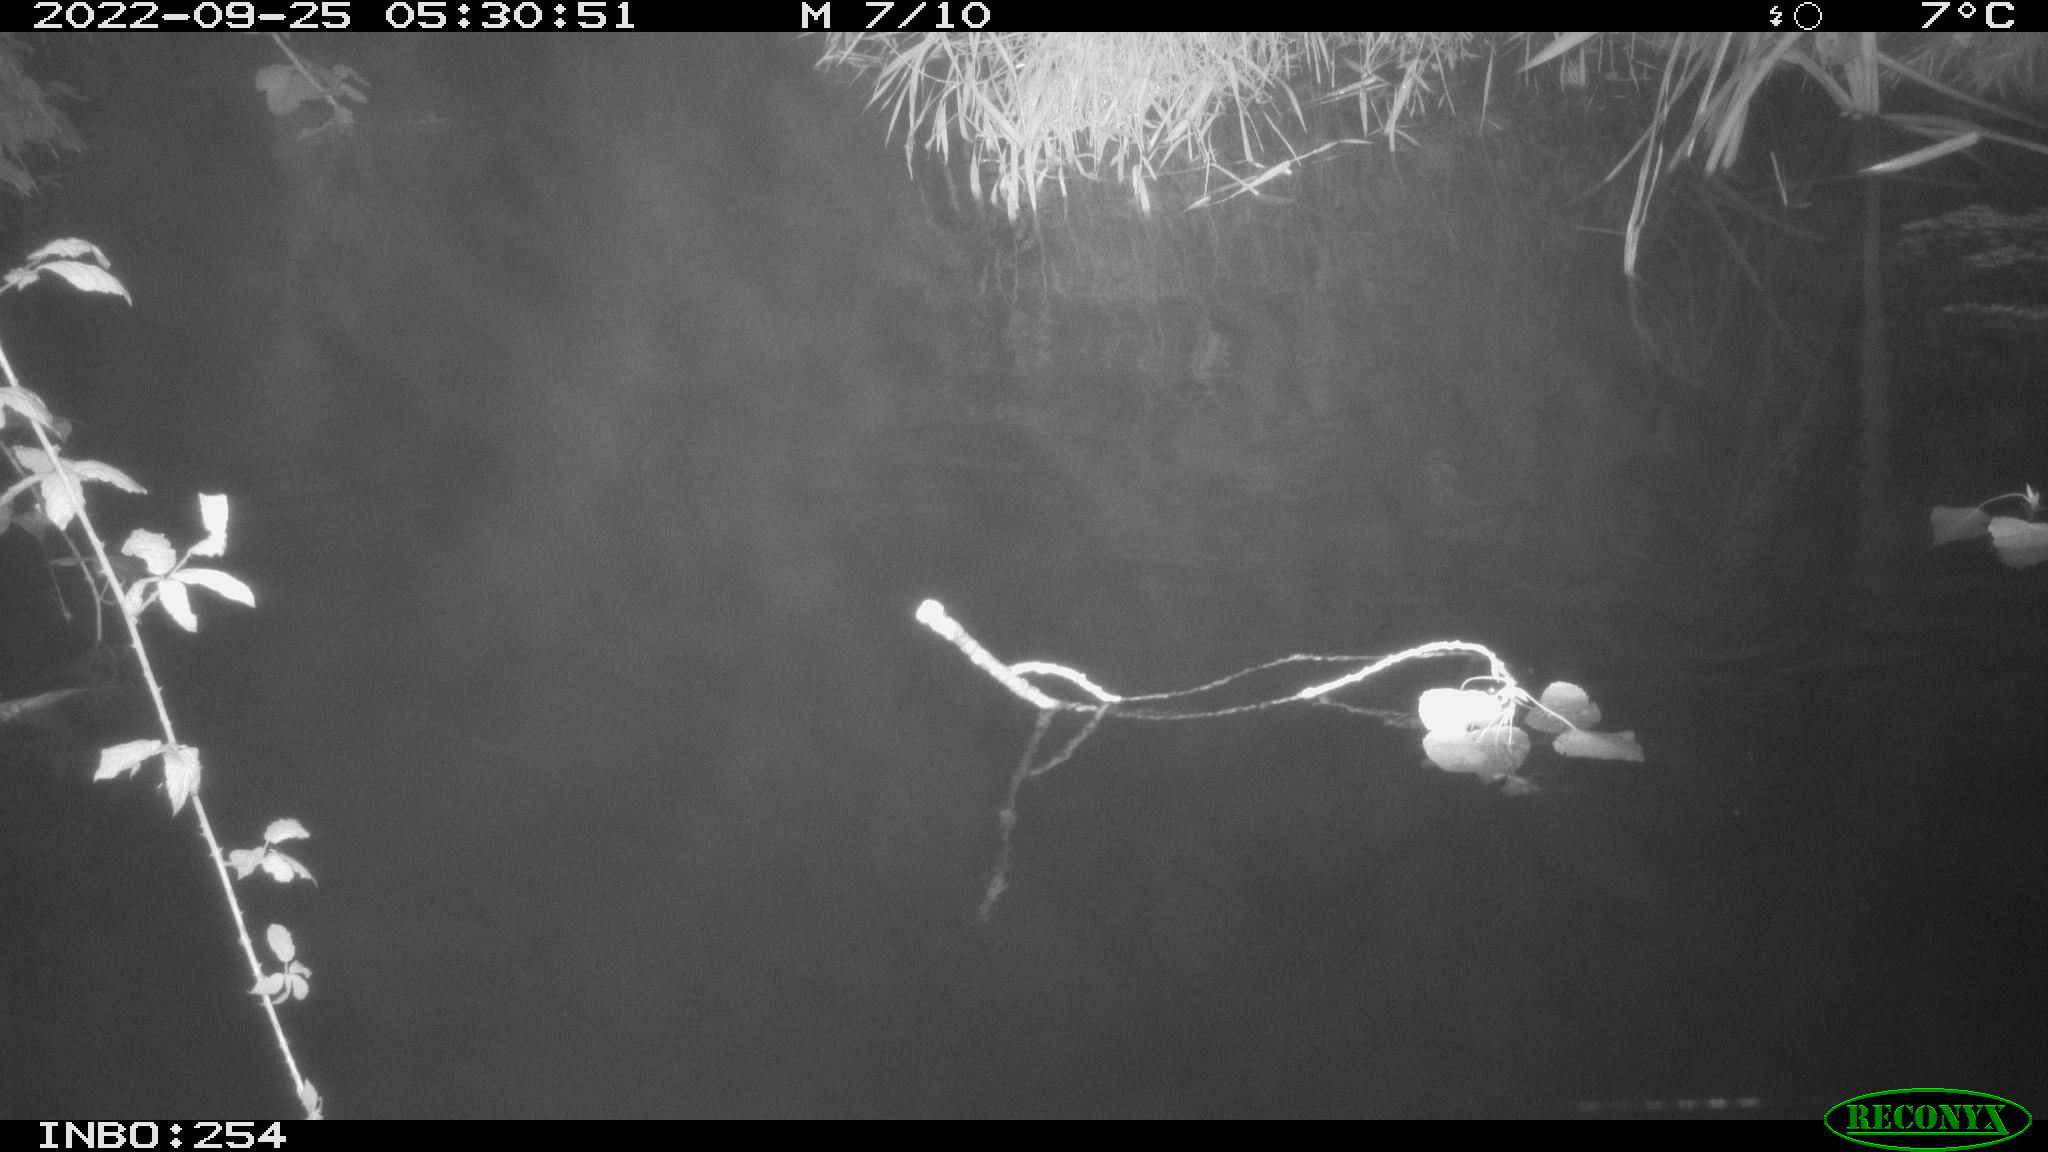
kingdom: Animalia
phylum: Chordata
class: Mammalia
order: Rodentia
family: Muridae
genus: Rattus
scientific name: Rattus norvegicus
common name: Brown rat
